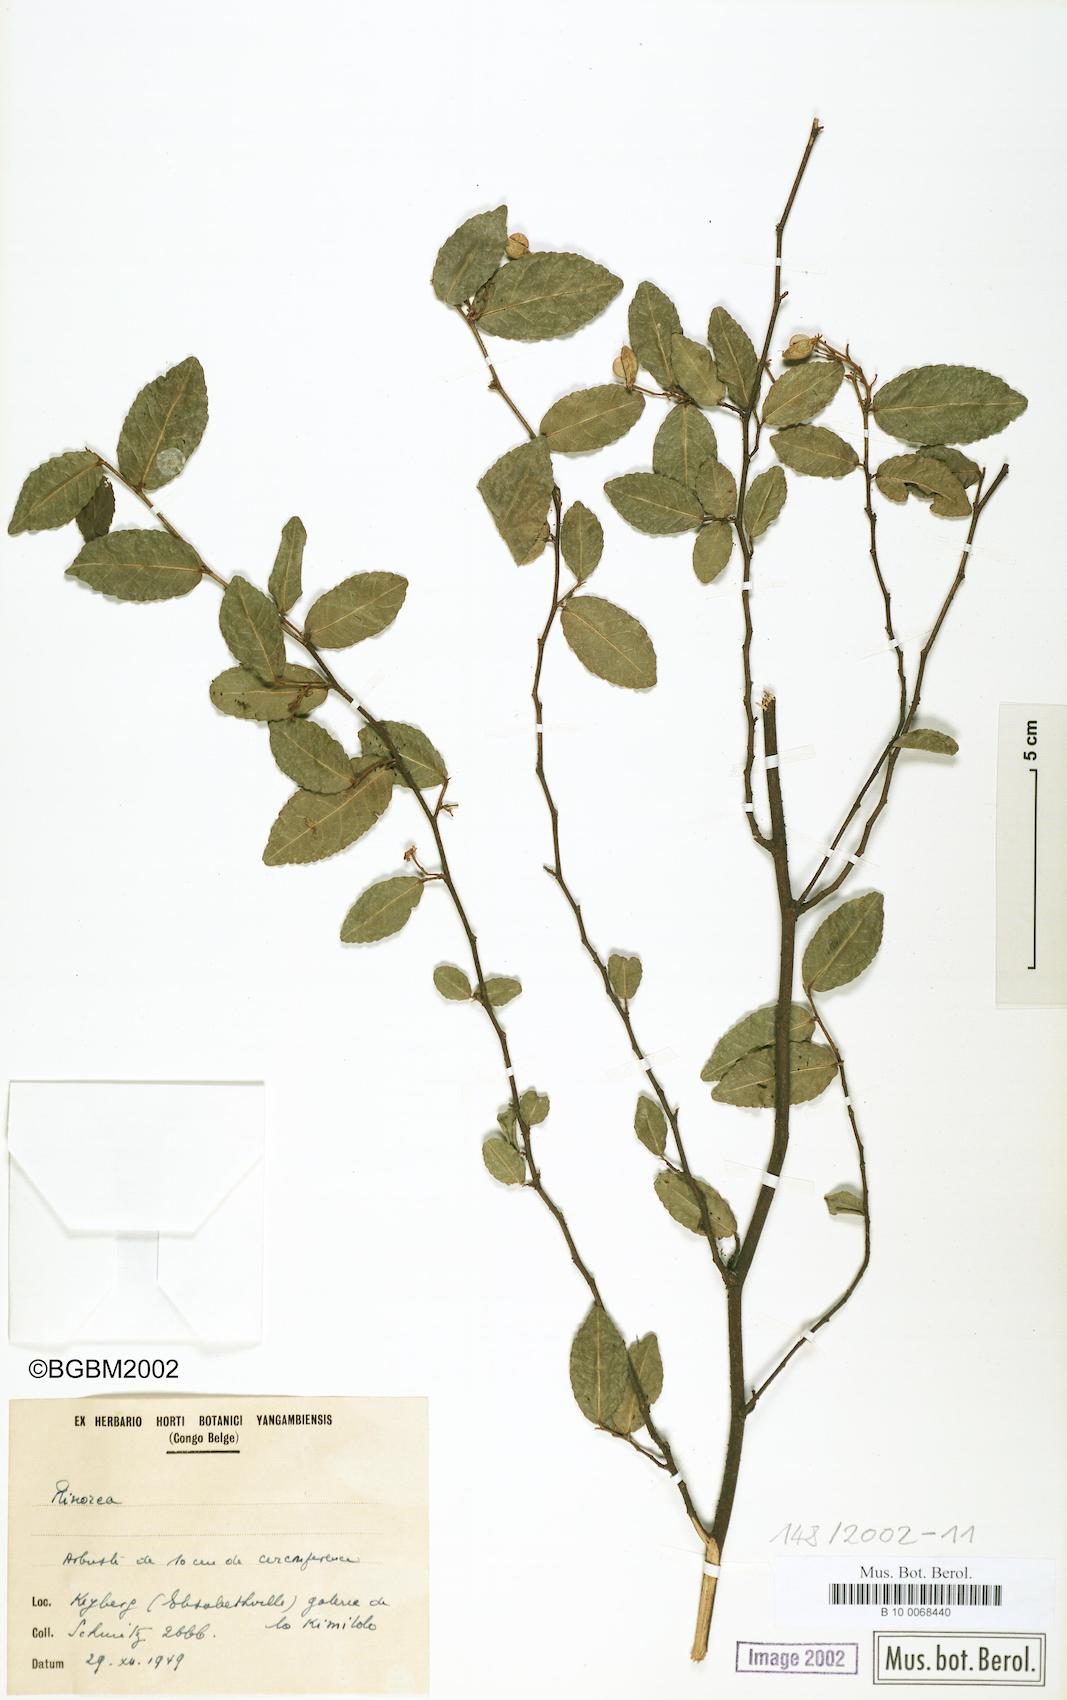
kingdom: Plantae
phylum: Tracheophyta
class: Magnoliopsida
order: Malpighiales
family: Violaceae
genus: Rinorea
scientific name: Rinorea
